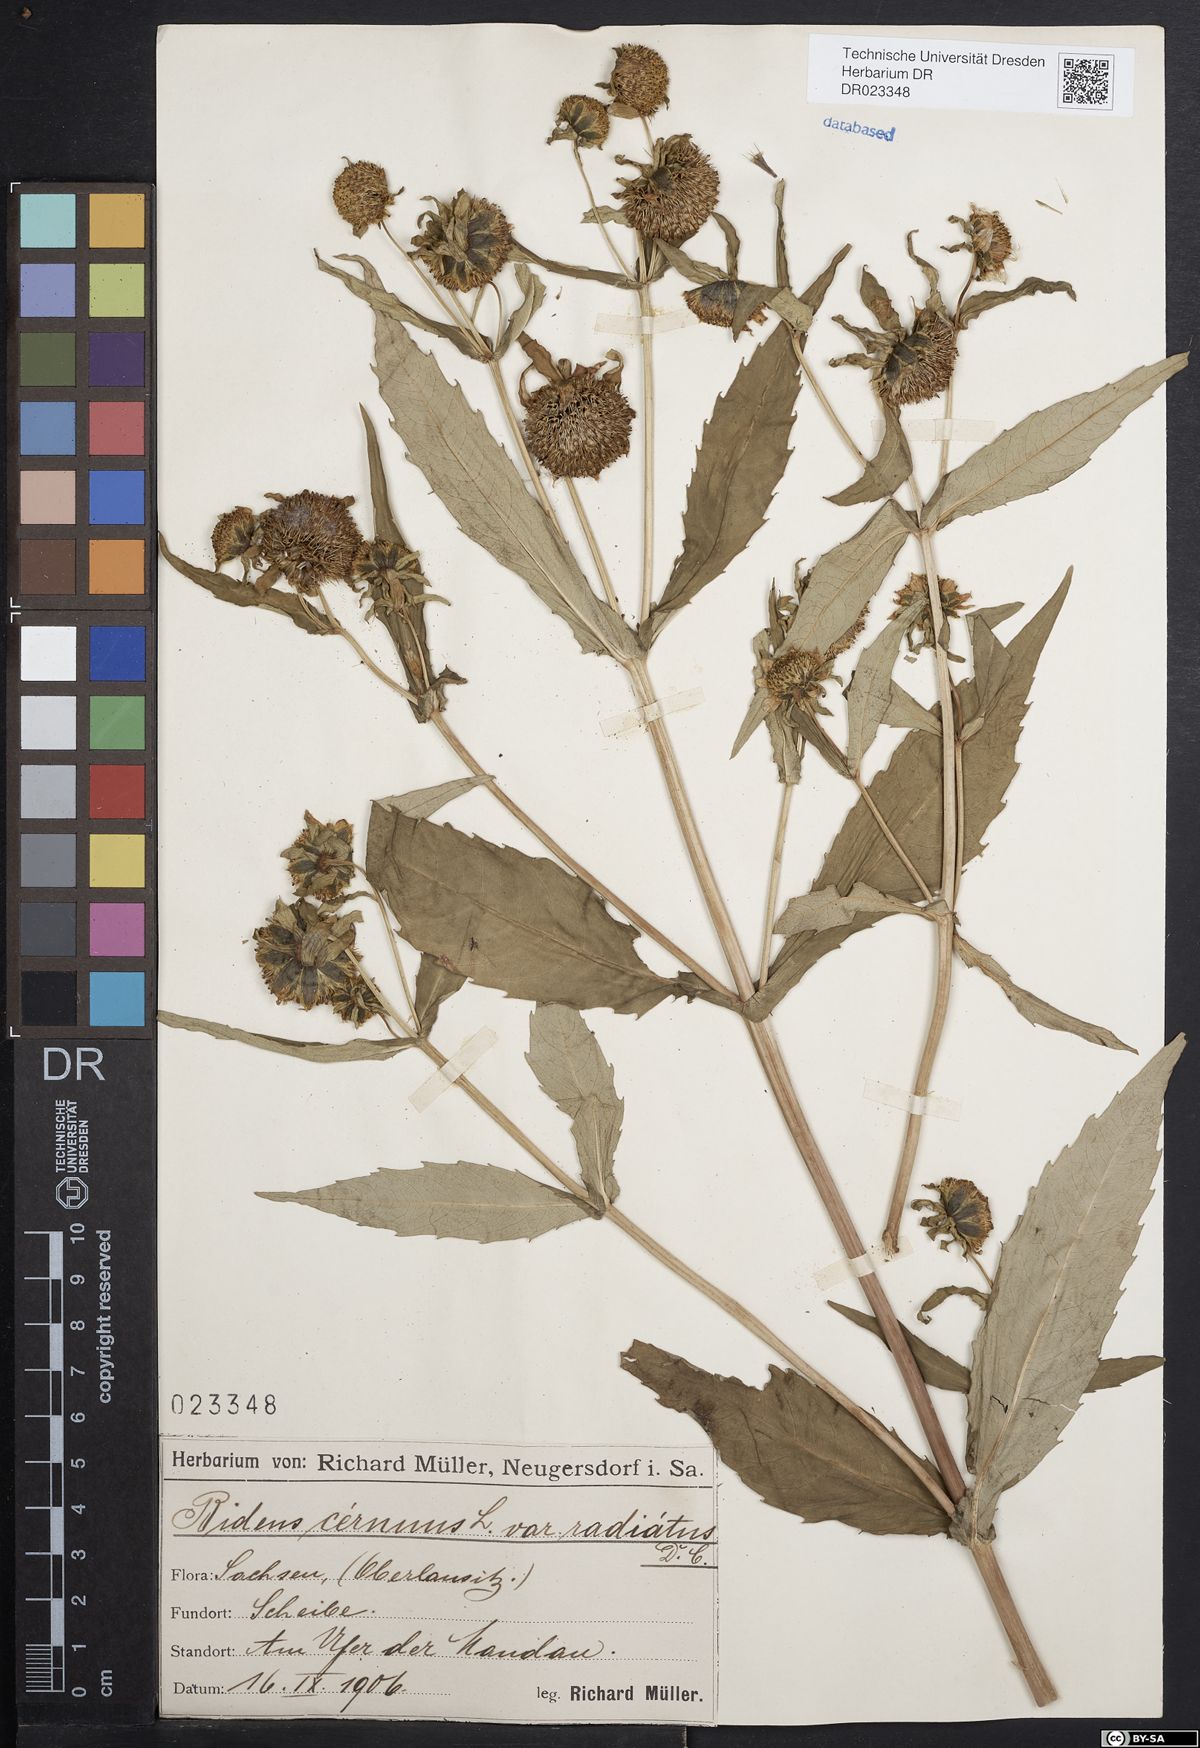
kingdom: Plantae
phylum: Tracheophyta
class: Magnoliopsida
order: Asterales
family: Asteraceae
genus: Bidens
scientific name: Bidens cernua
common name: Nodding bur-marigold
